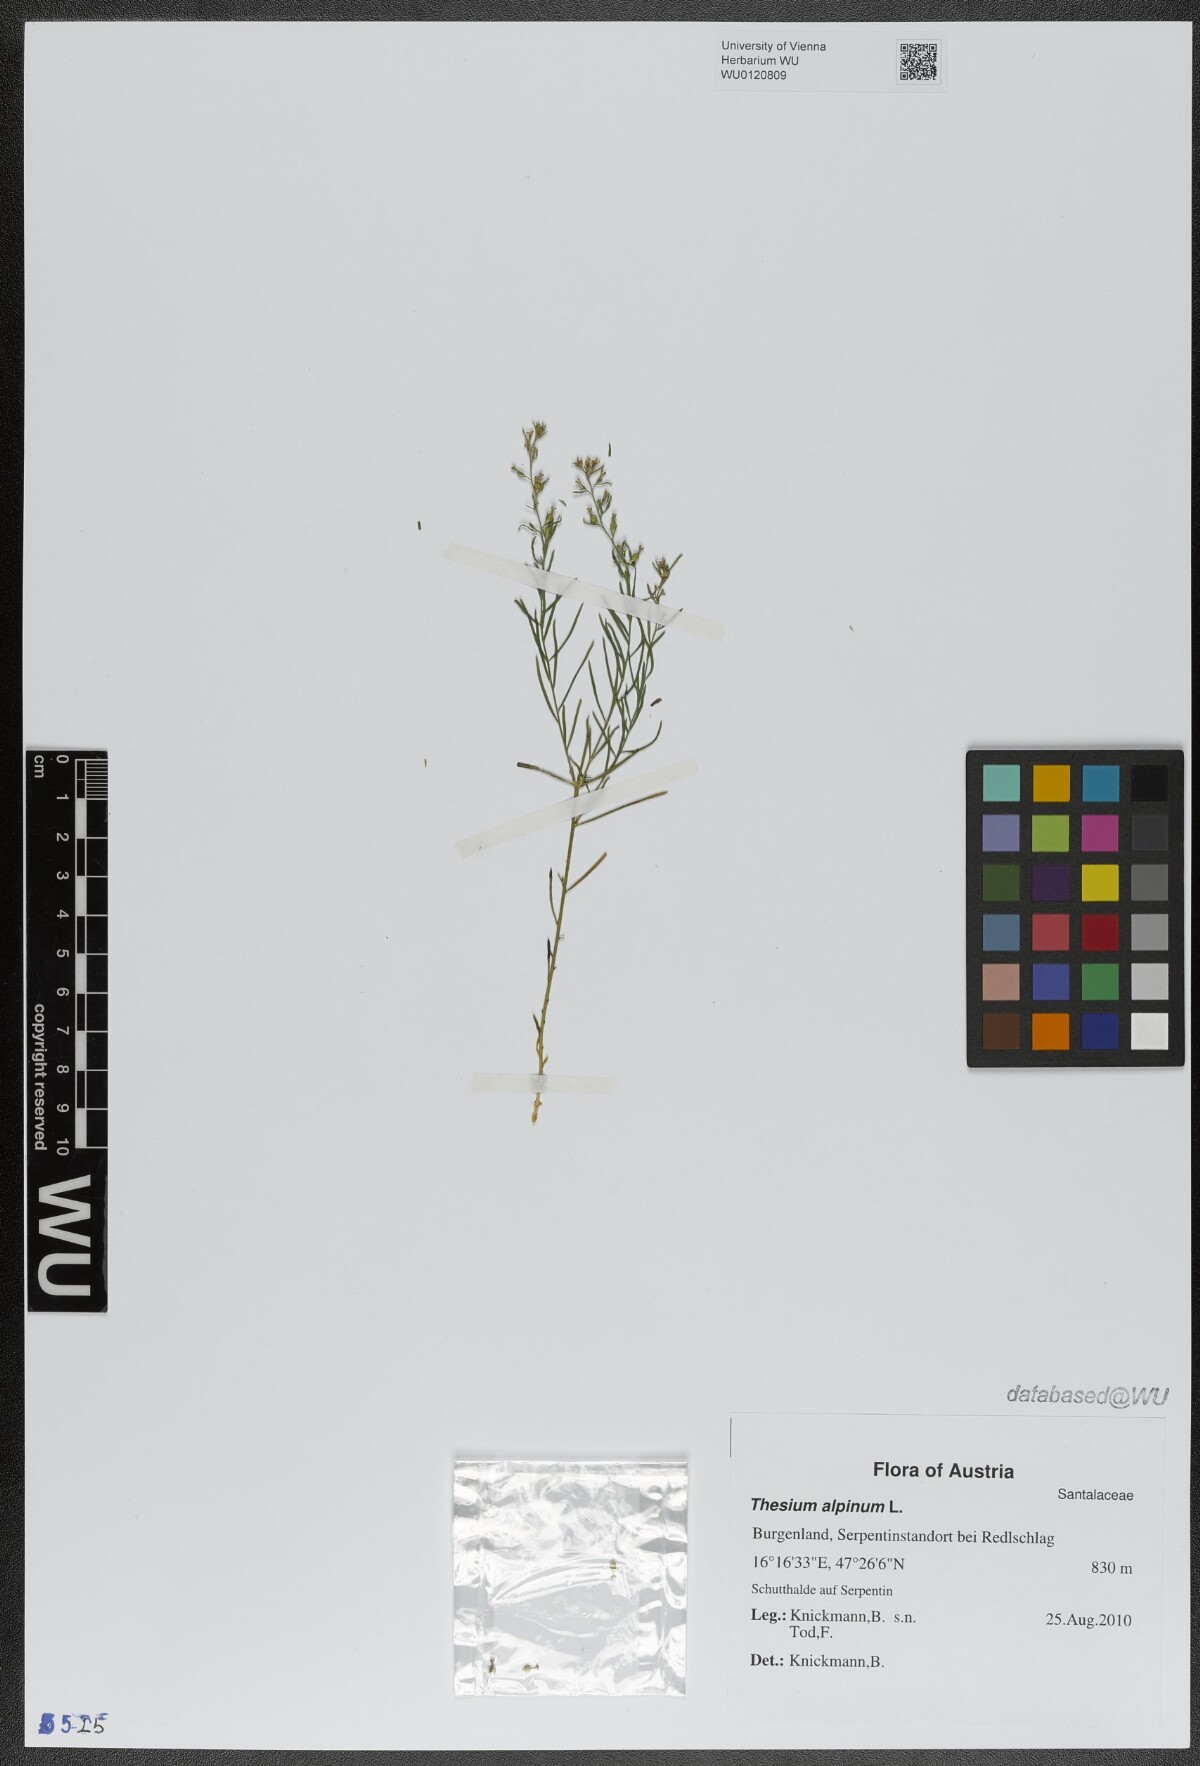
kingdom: Plantae
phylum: Tracheophyta
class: Magnoliopsida
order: Santalales
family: Thesiaceae
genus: Thesium
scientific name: Thesium alpinum
